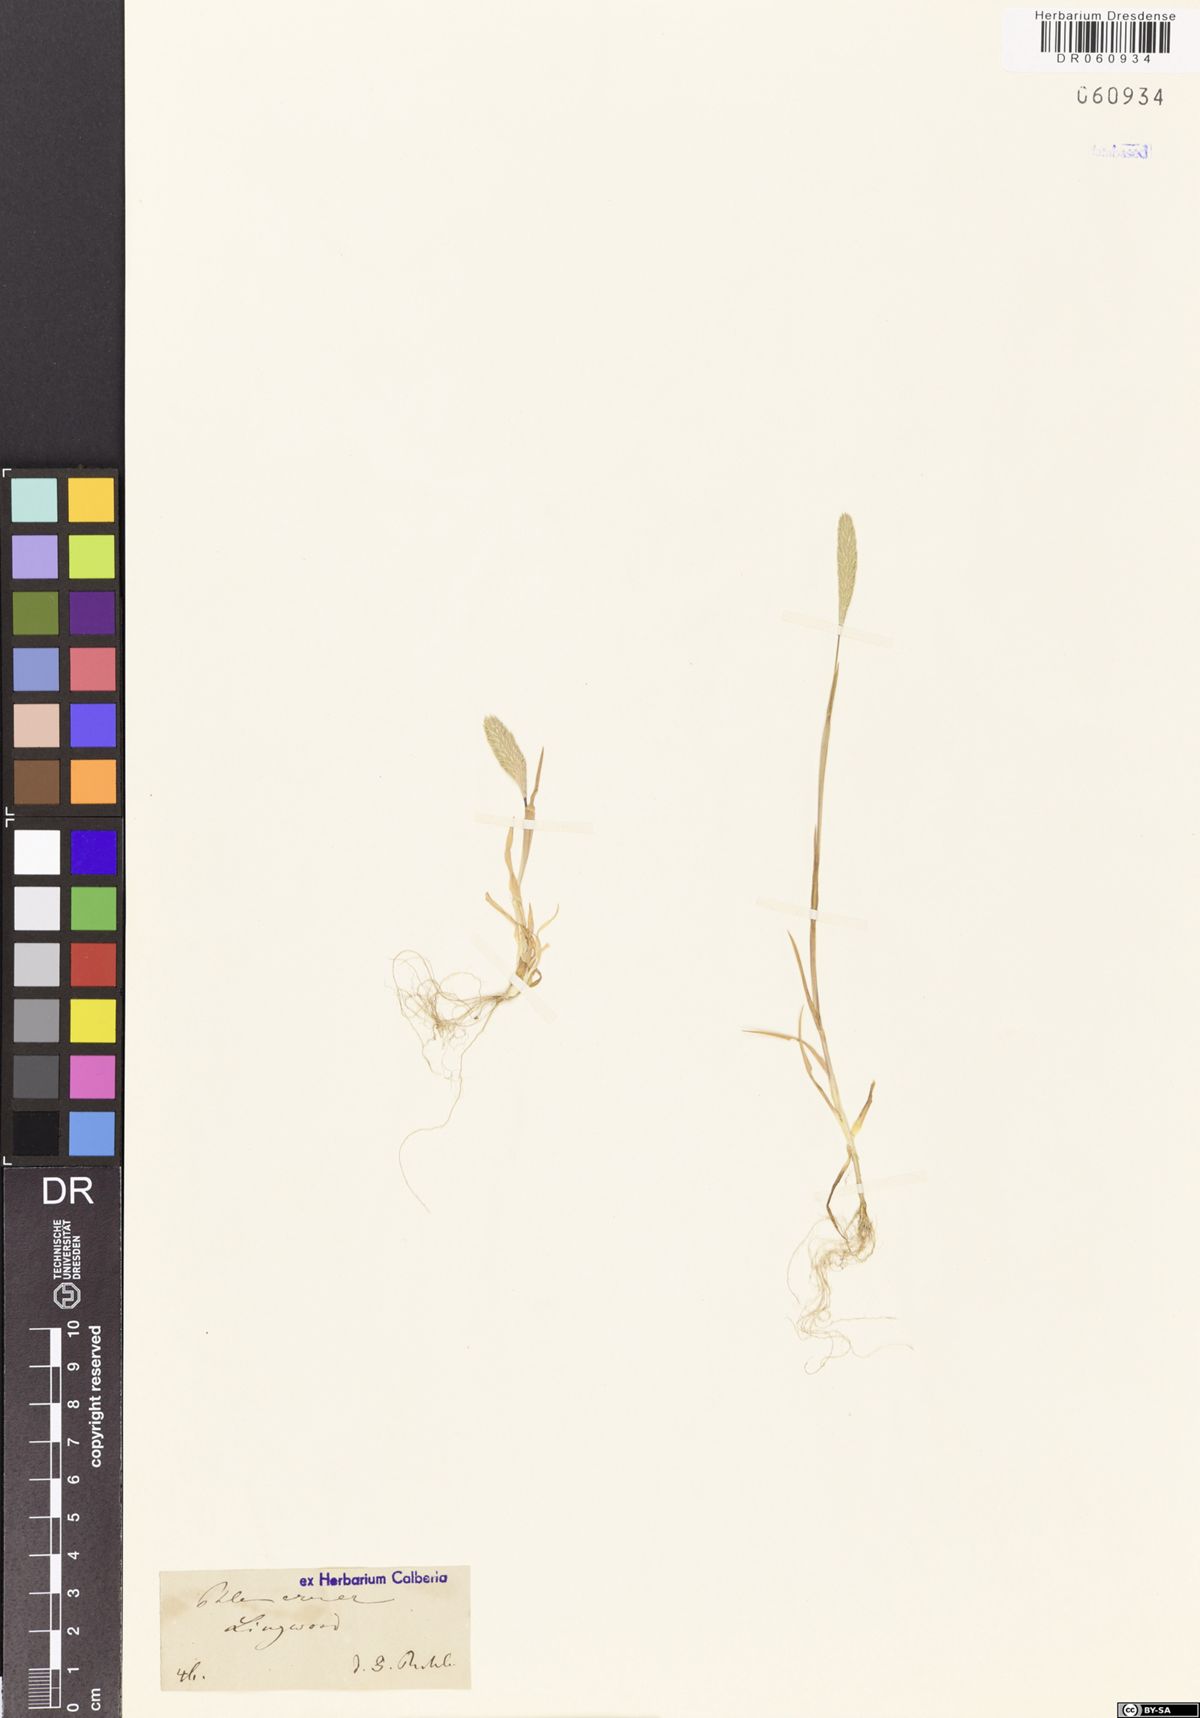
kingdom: Plantae
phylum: Tracheophyta
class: Liliopsida
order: Poales
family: Poaceae
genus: Phleum
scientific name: Phleum arenarium
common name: Sand cat's-tail
